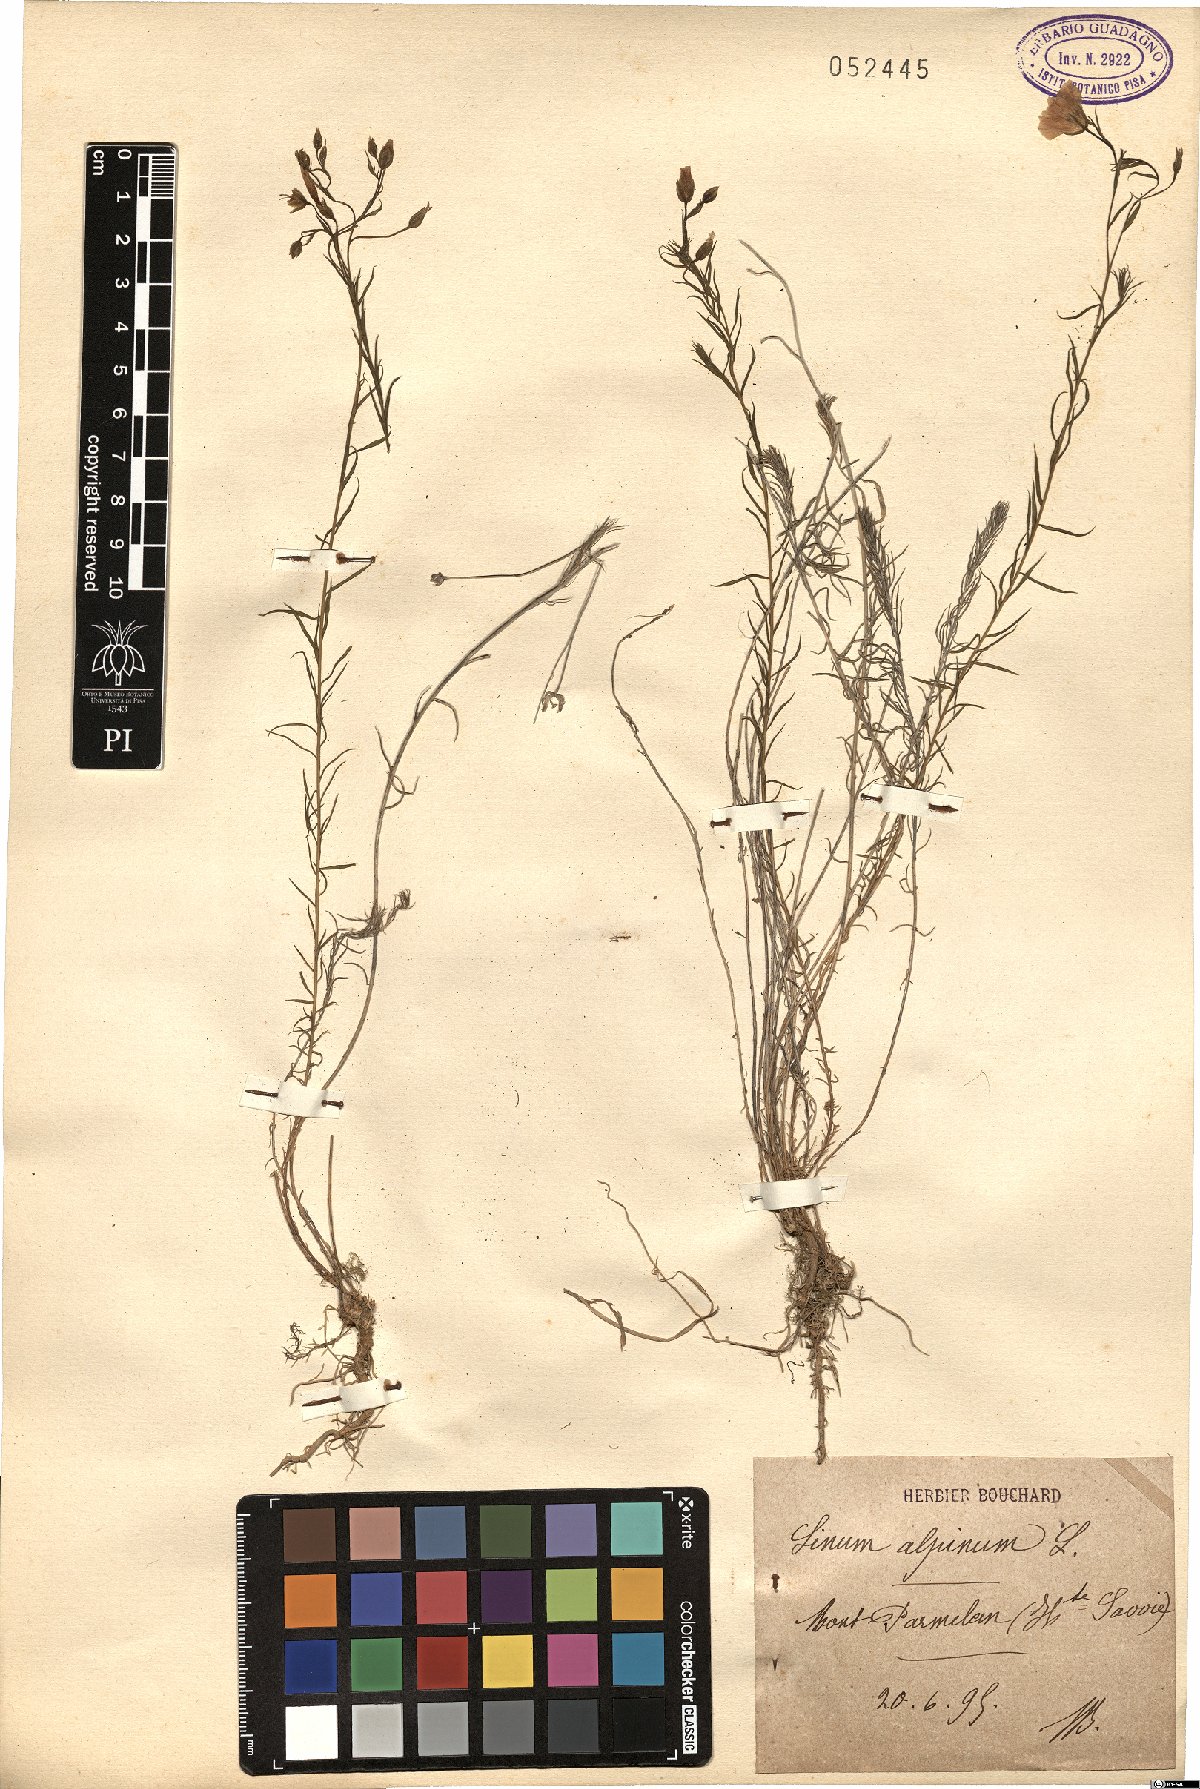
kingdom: Plantae
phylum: Tracheophyta
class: Magnoliopsida
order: Malpighiales
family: Linaceae
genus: Linum
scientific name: Linum alpinum
